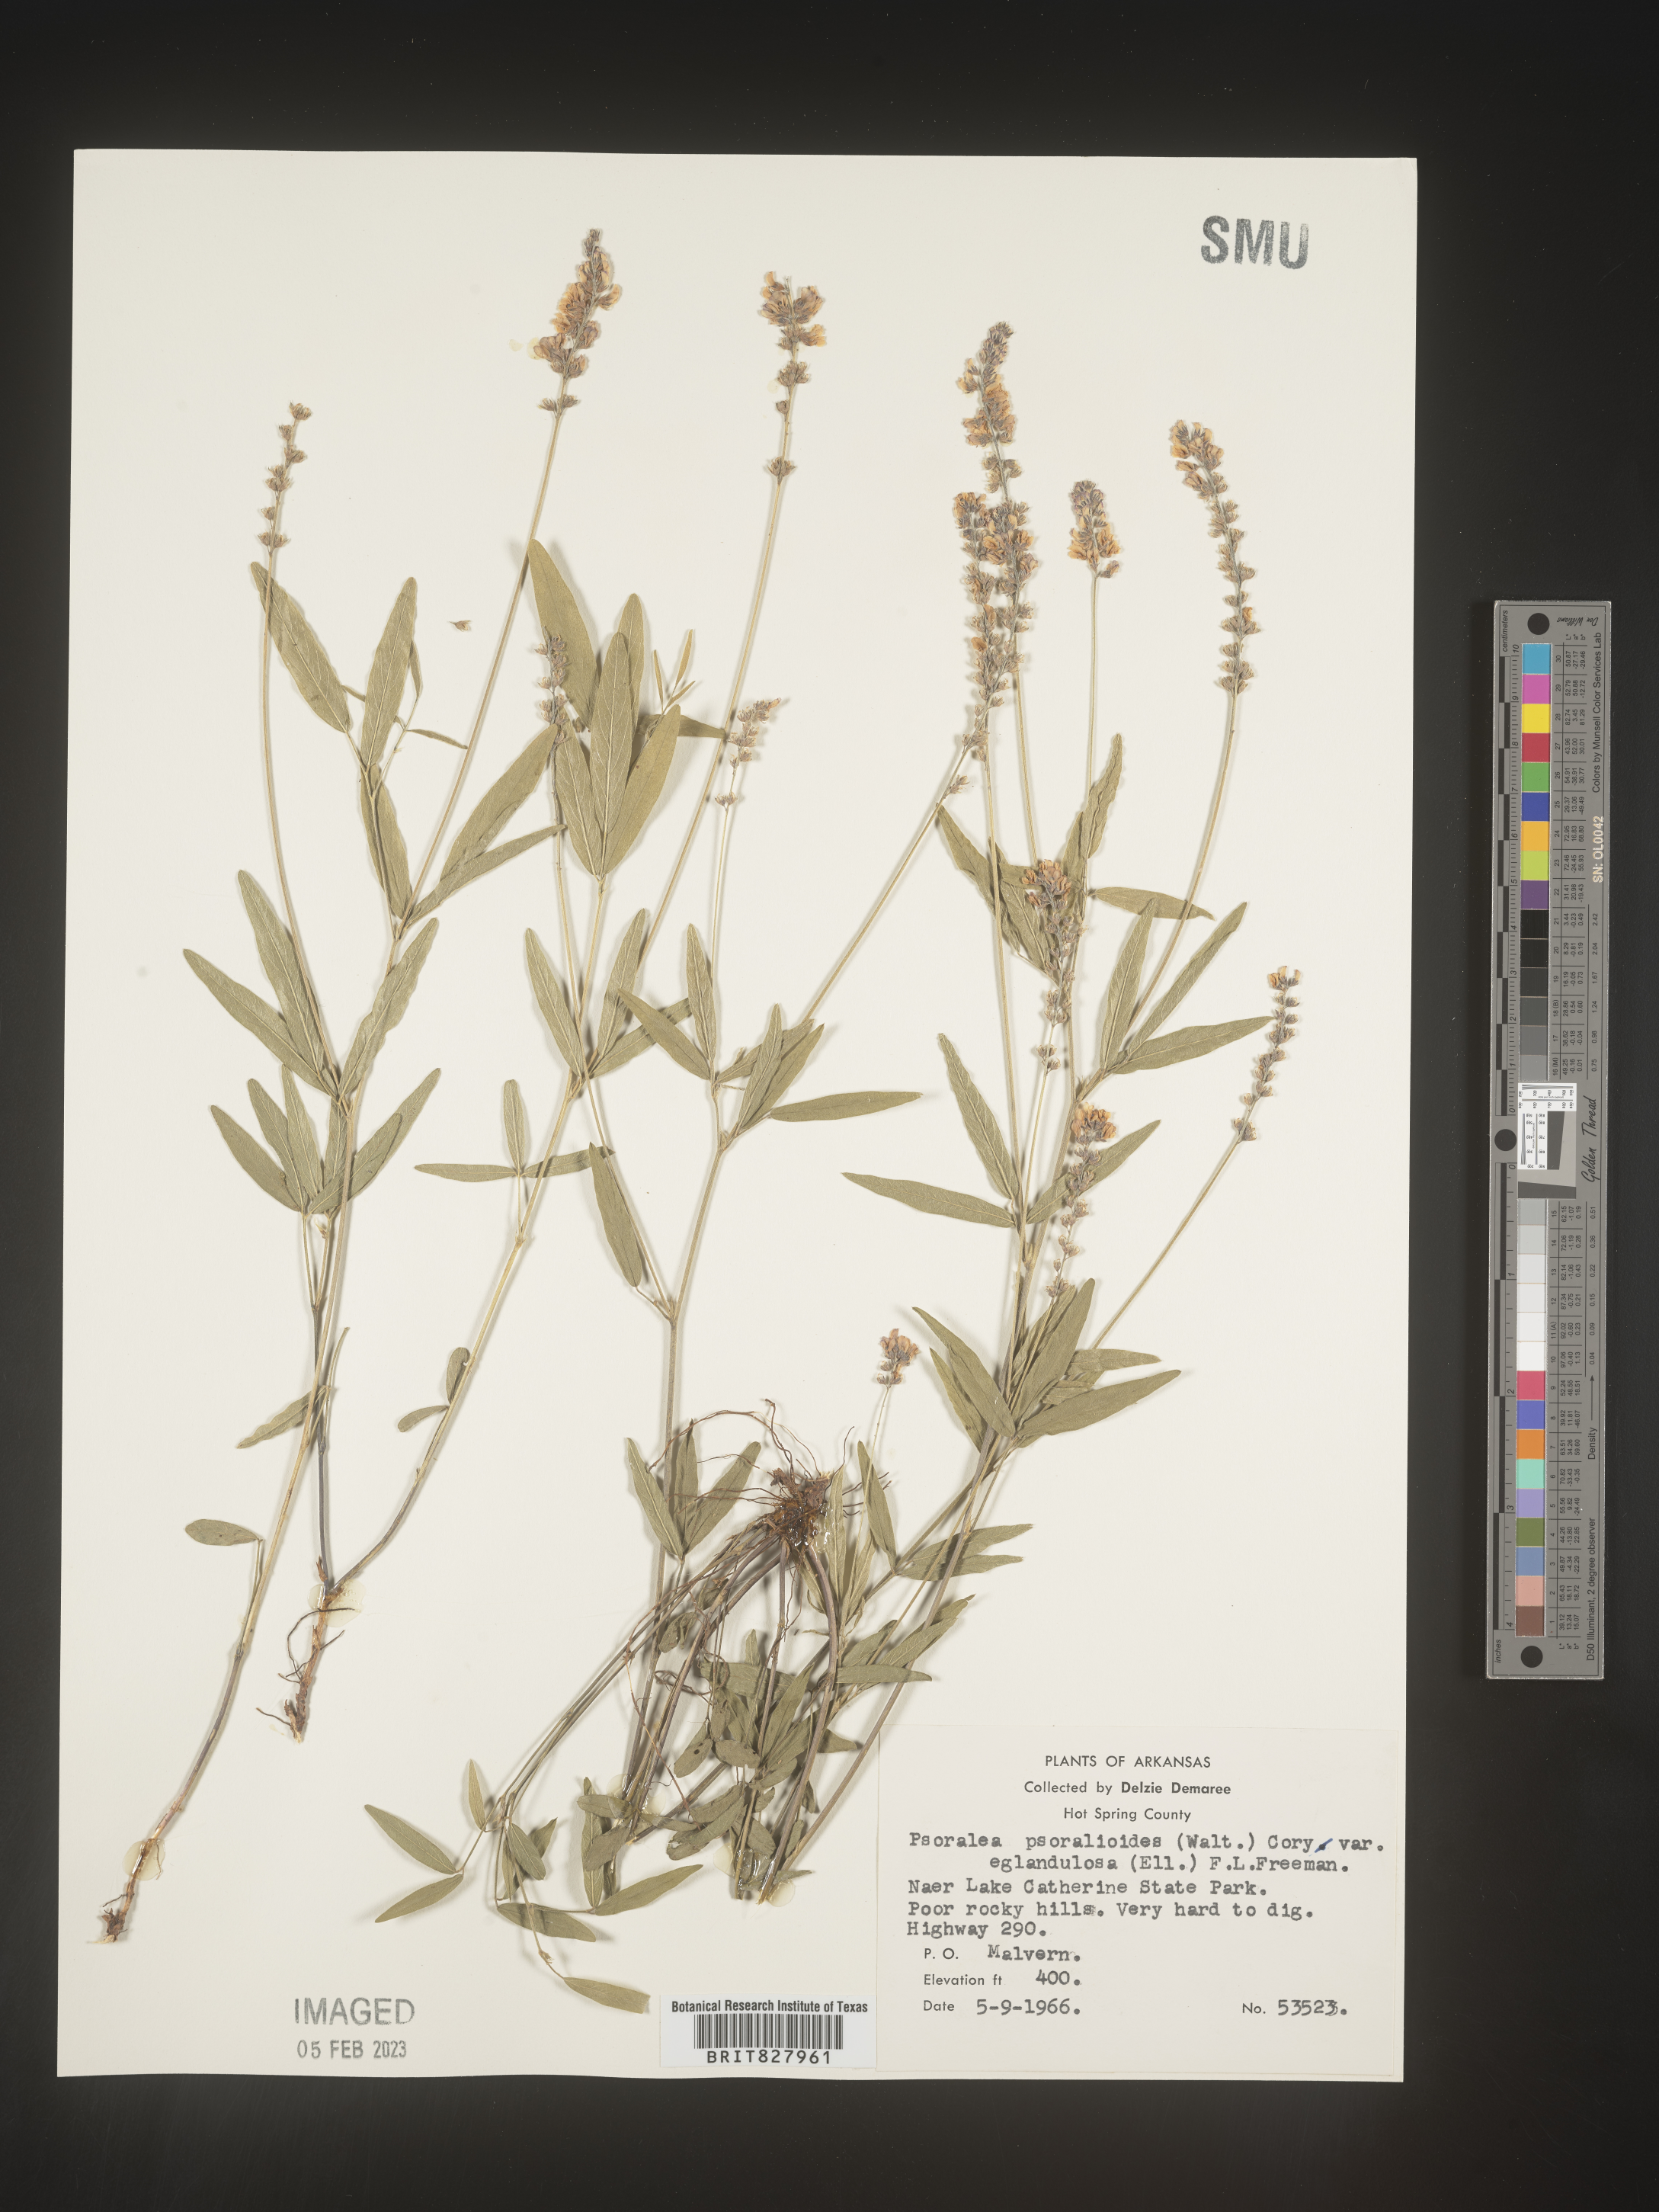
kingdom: Plantae
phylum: Tracheophyta
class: Magnoliopsida
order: Fabales
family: Fabaceae
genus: Orbexilum
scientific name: Orbexilum pedunculatum
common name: Sampson's snakeroot
